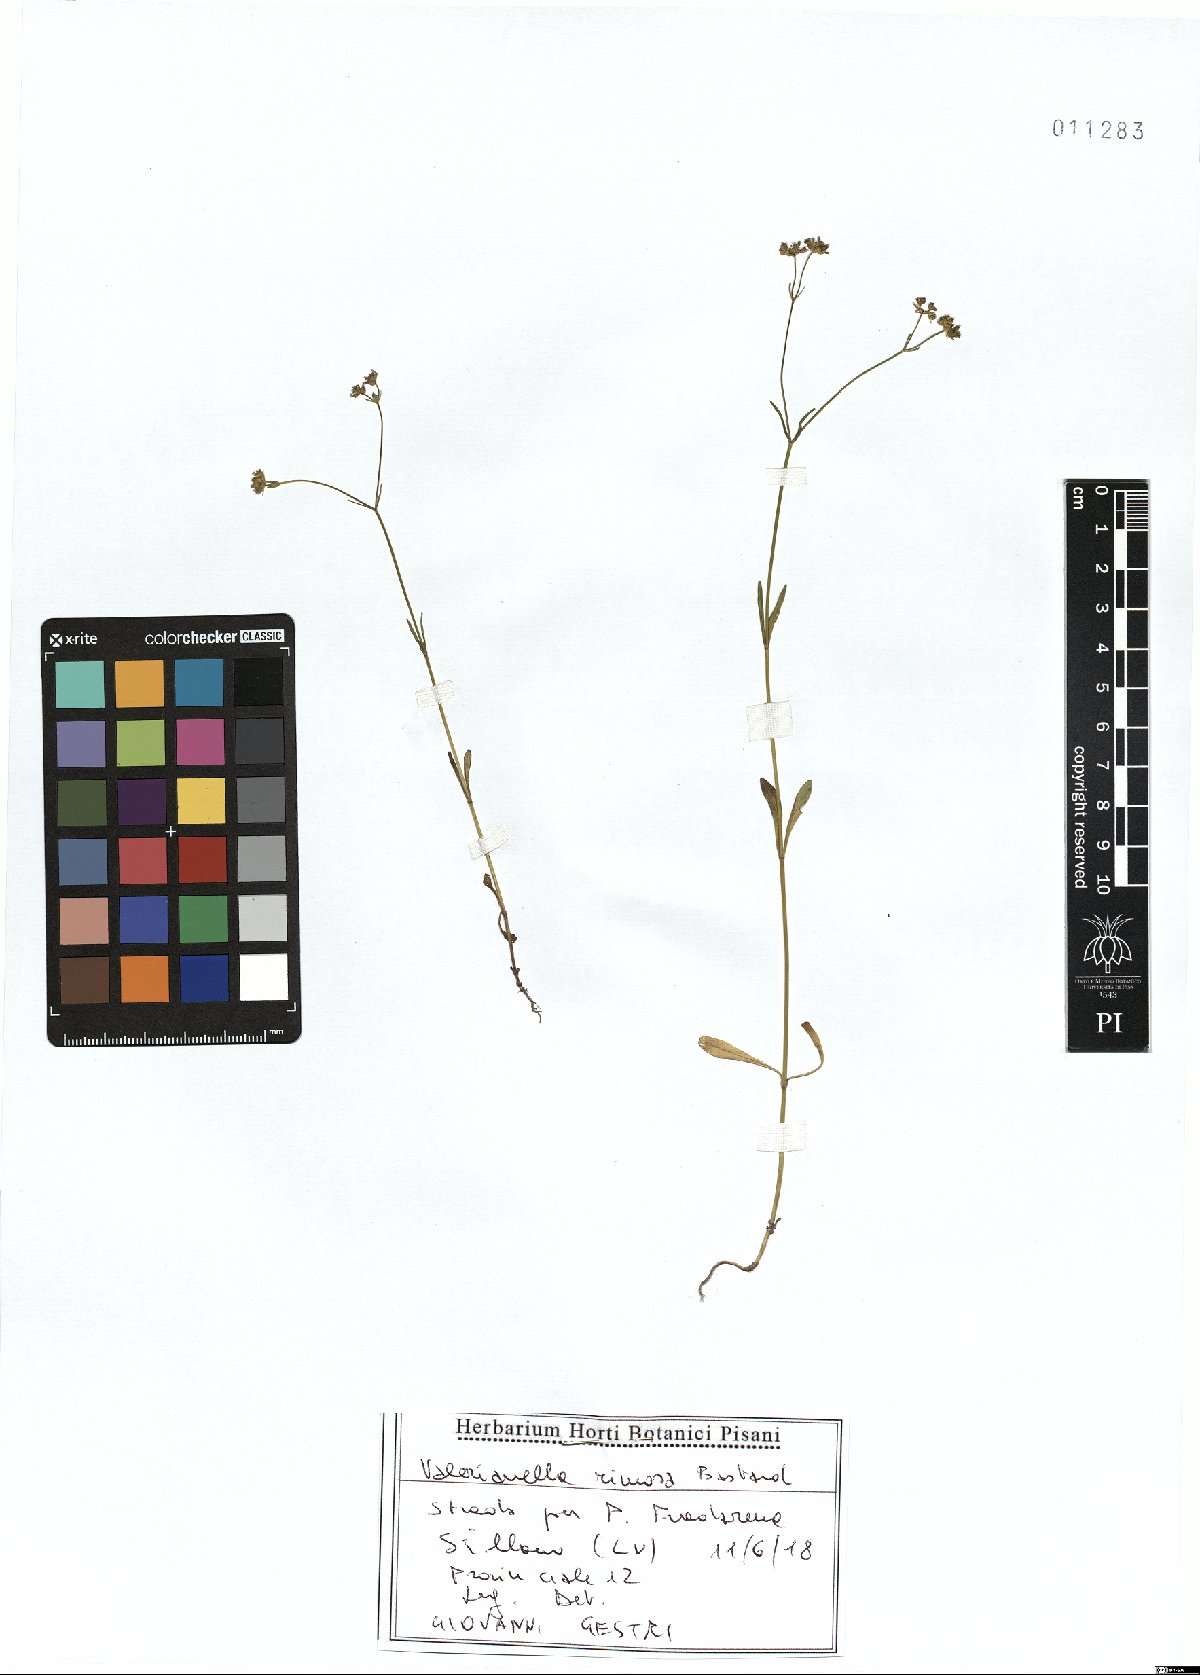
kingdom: Plantae
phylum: Tracheophyta
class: Magnoliopsida
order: Dipsacales
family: Caprifoliaceae
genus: Valerianella
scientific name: Valerianella rimosa
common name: Broad-fruited cornsalad
